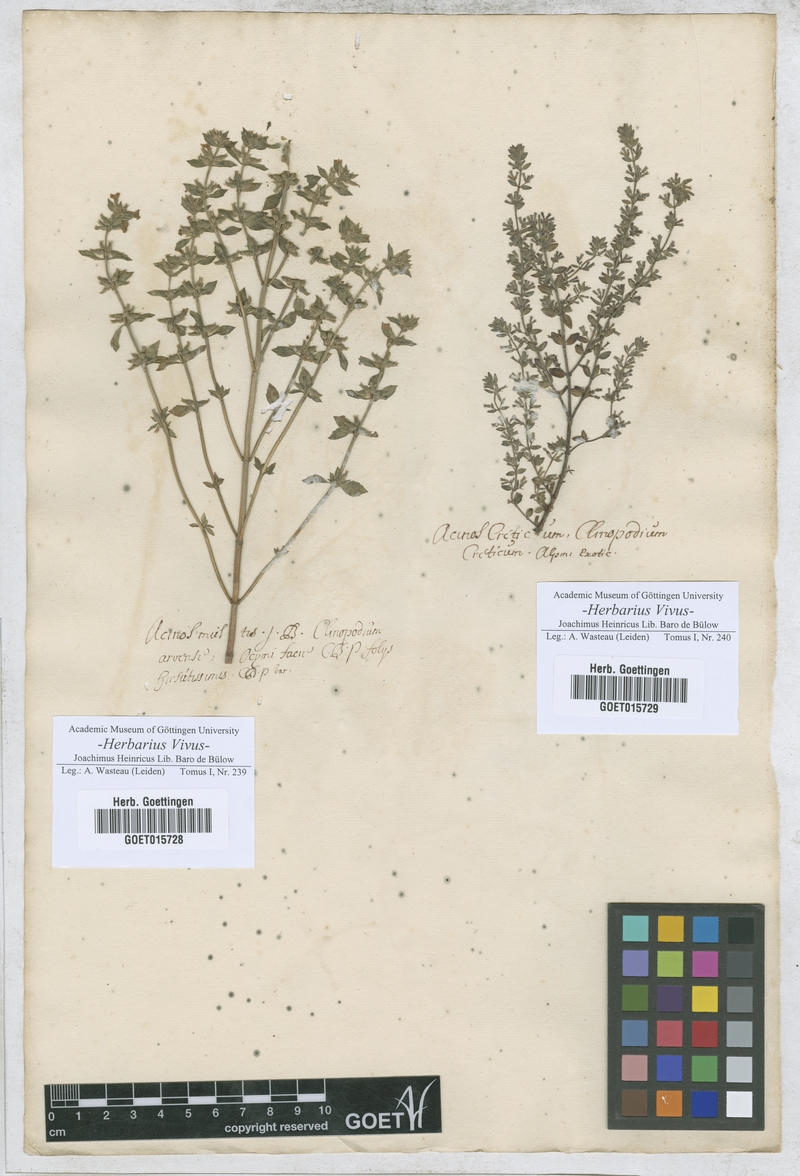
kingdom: Plantae
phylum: Tracheophyta
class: Magnoliopsida
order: Lamiales
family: Lamiaceae
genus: Clinopodium
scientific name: Clinopodium acinos
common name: Basil thyme
